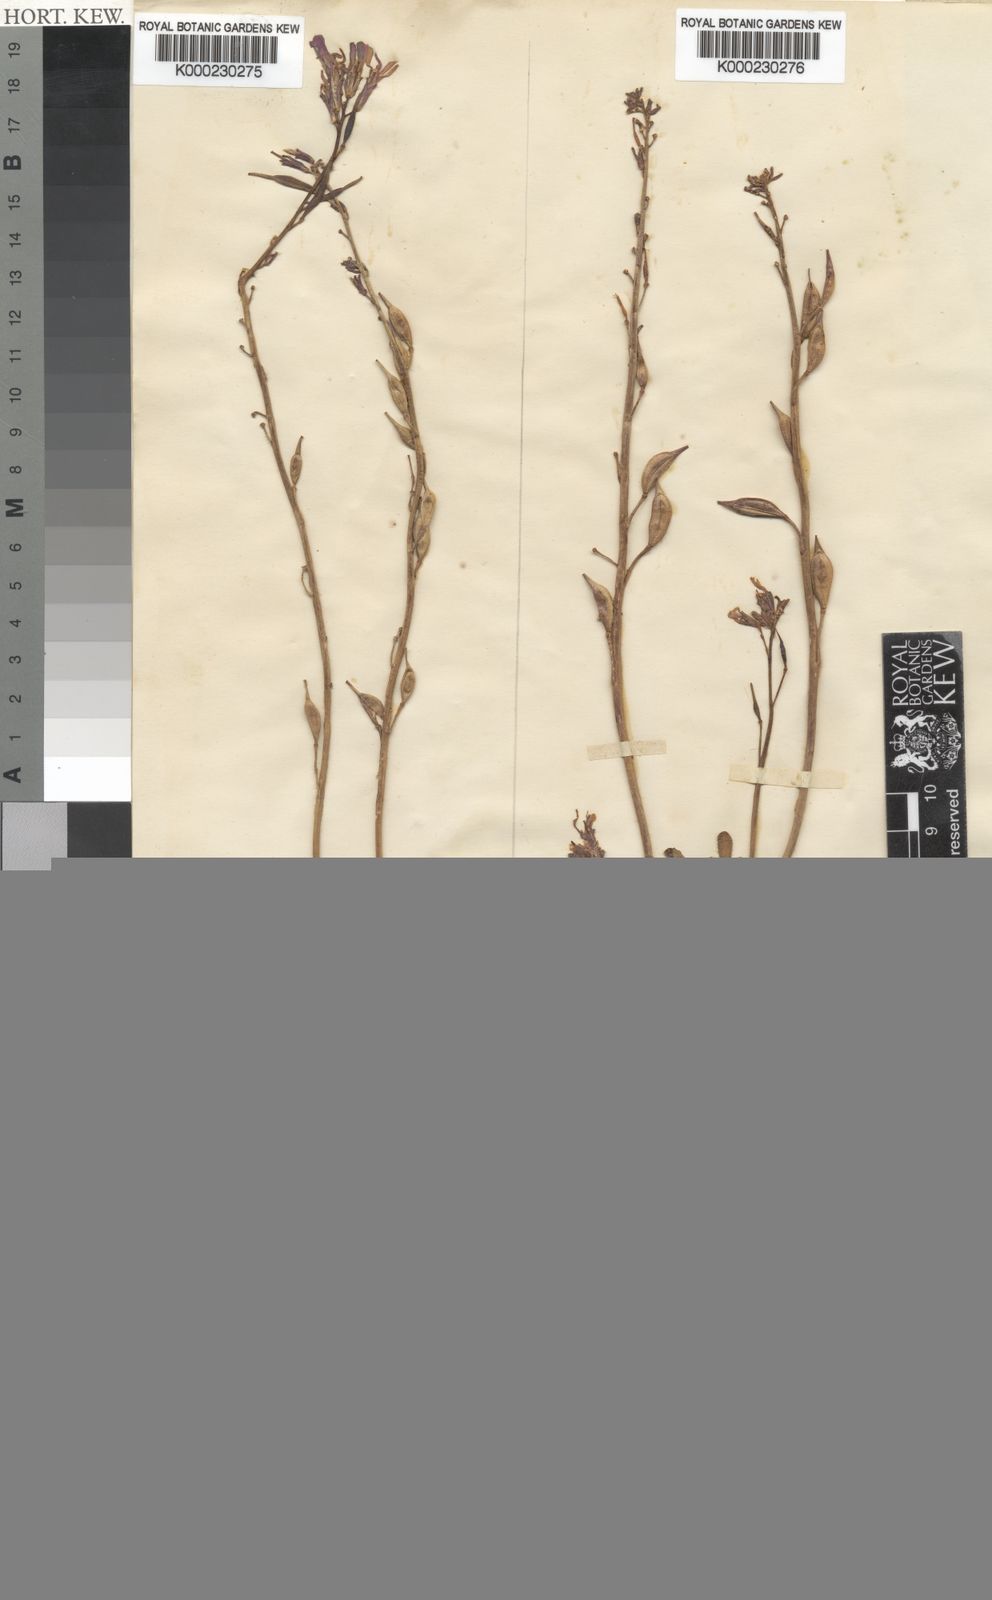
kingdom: Plantae
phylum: Tracheophyta
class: Magnoliopsida
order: Brassicales
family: Brassicaceae
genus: Eruca
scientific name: Eruca setulosa
